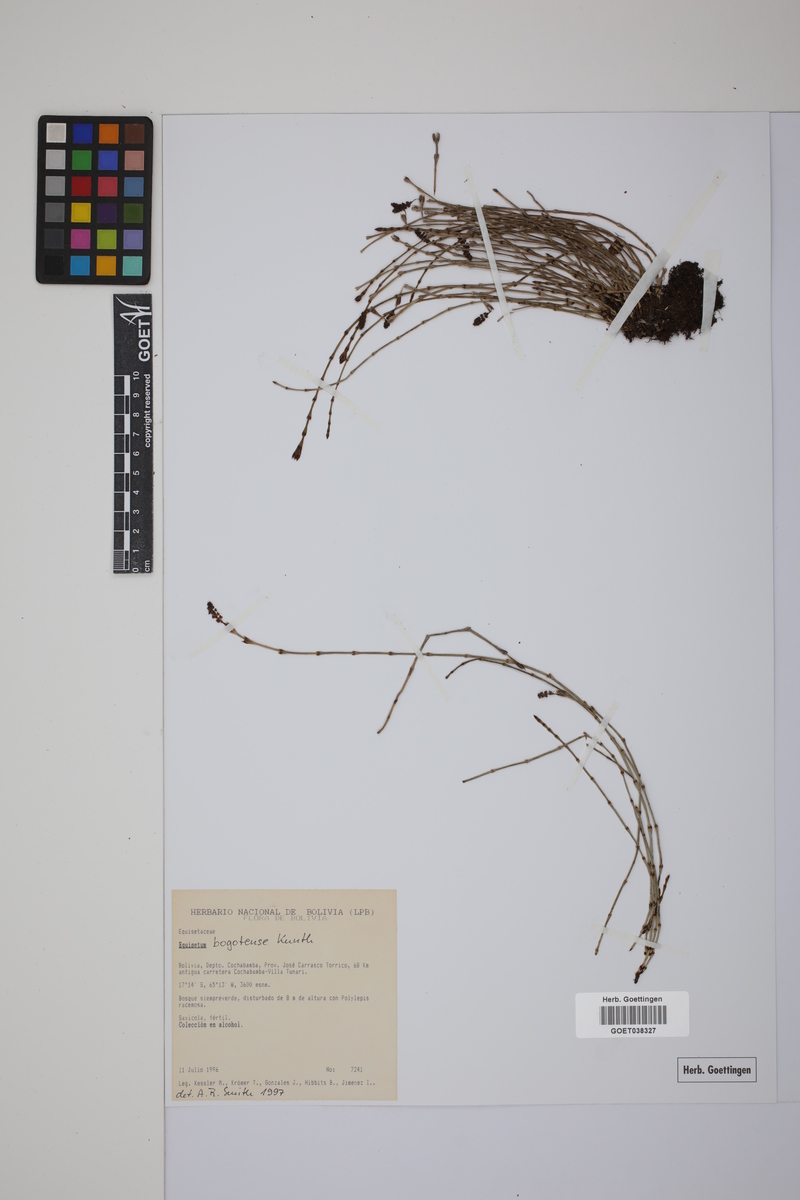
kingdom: Plantae
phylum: Tracheophyta
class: Polypodiopsida
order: Equisetales
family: Equisetaceae
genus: Equisetum
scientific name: Equisetum bogotense
